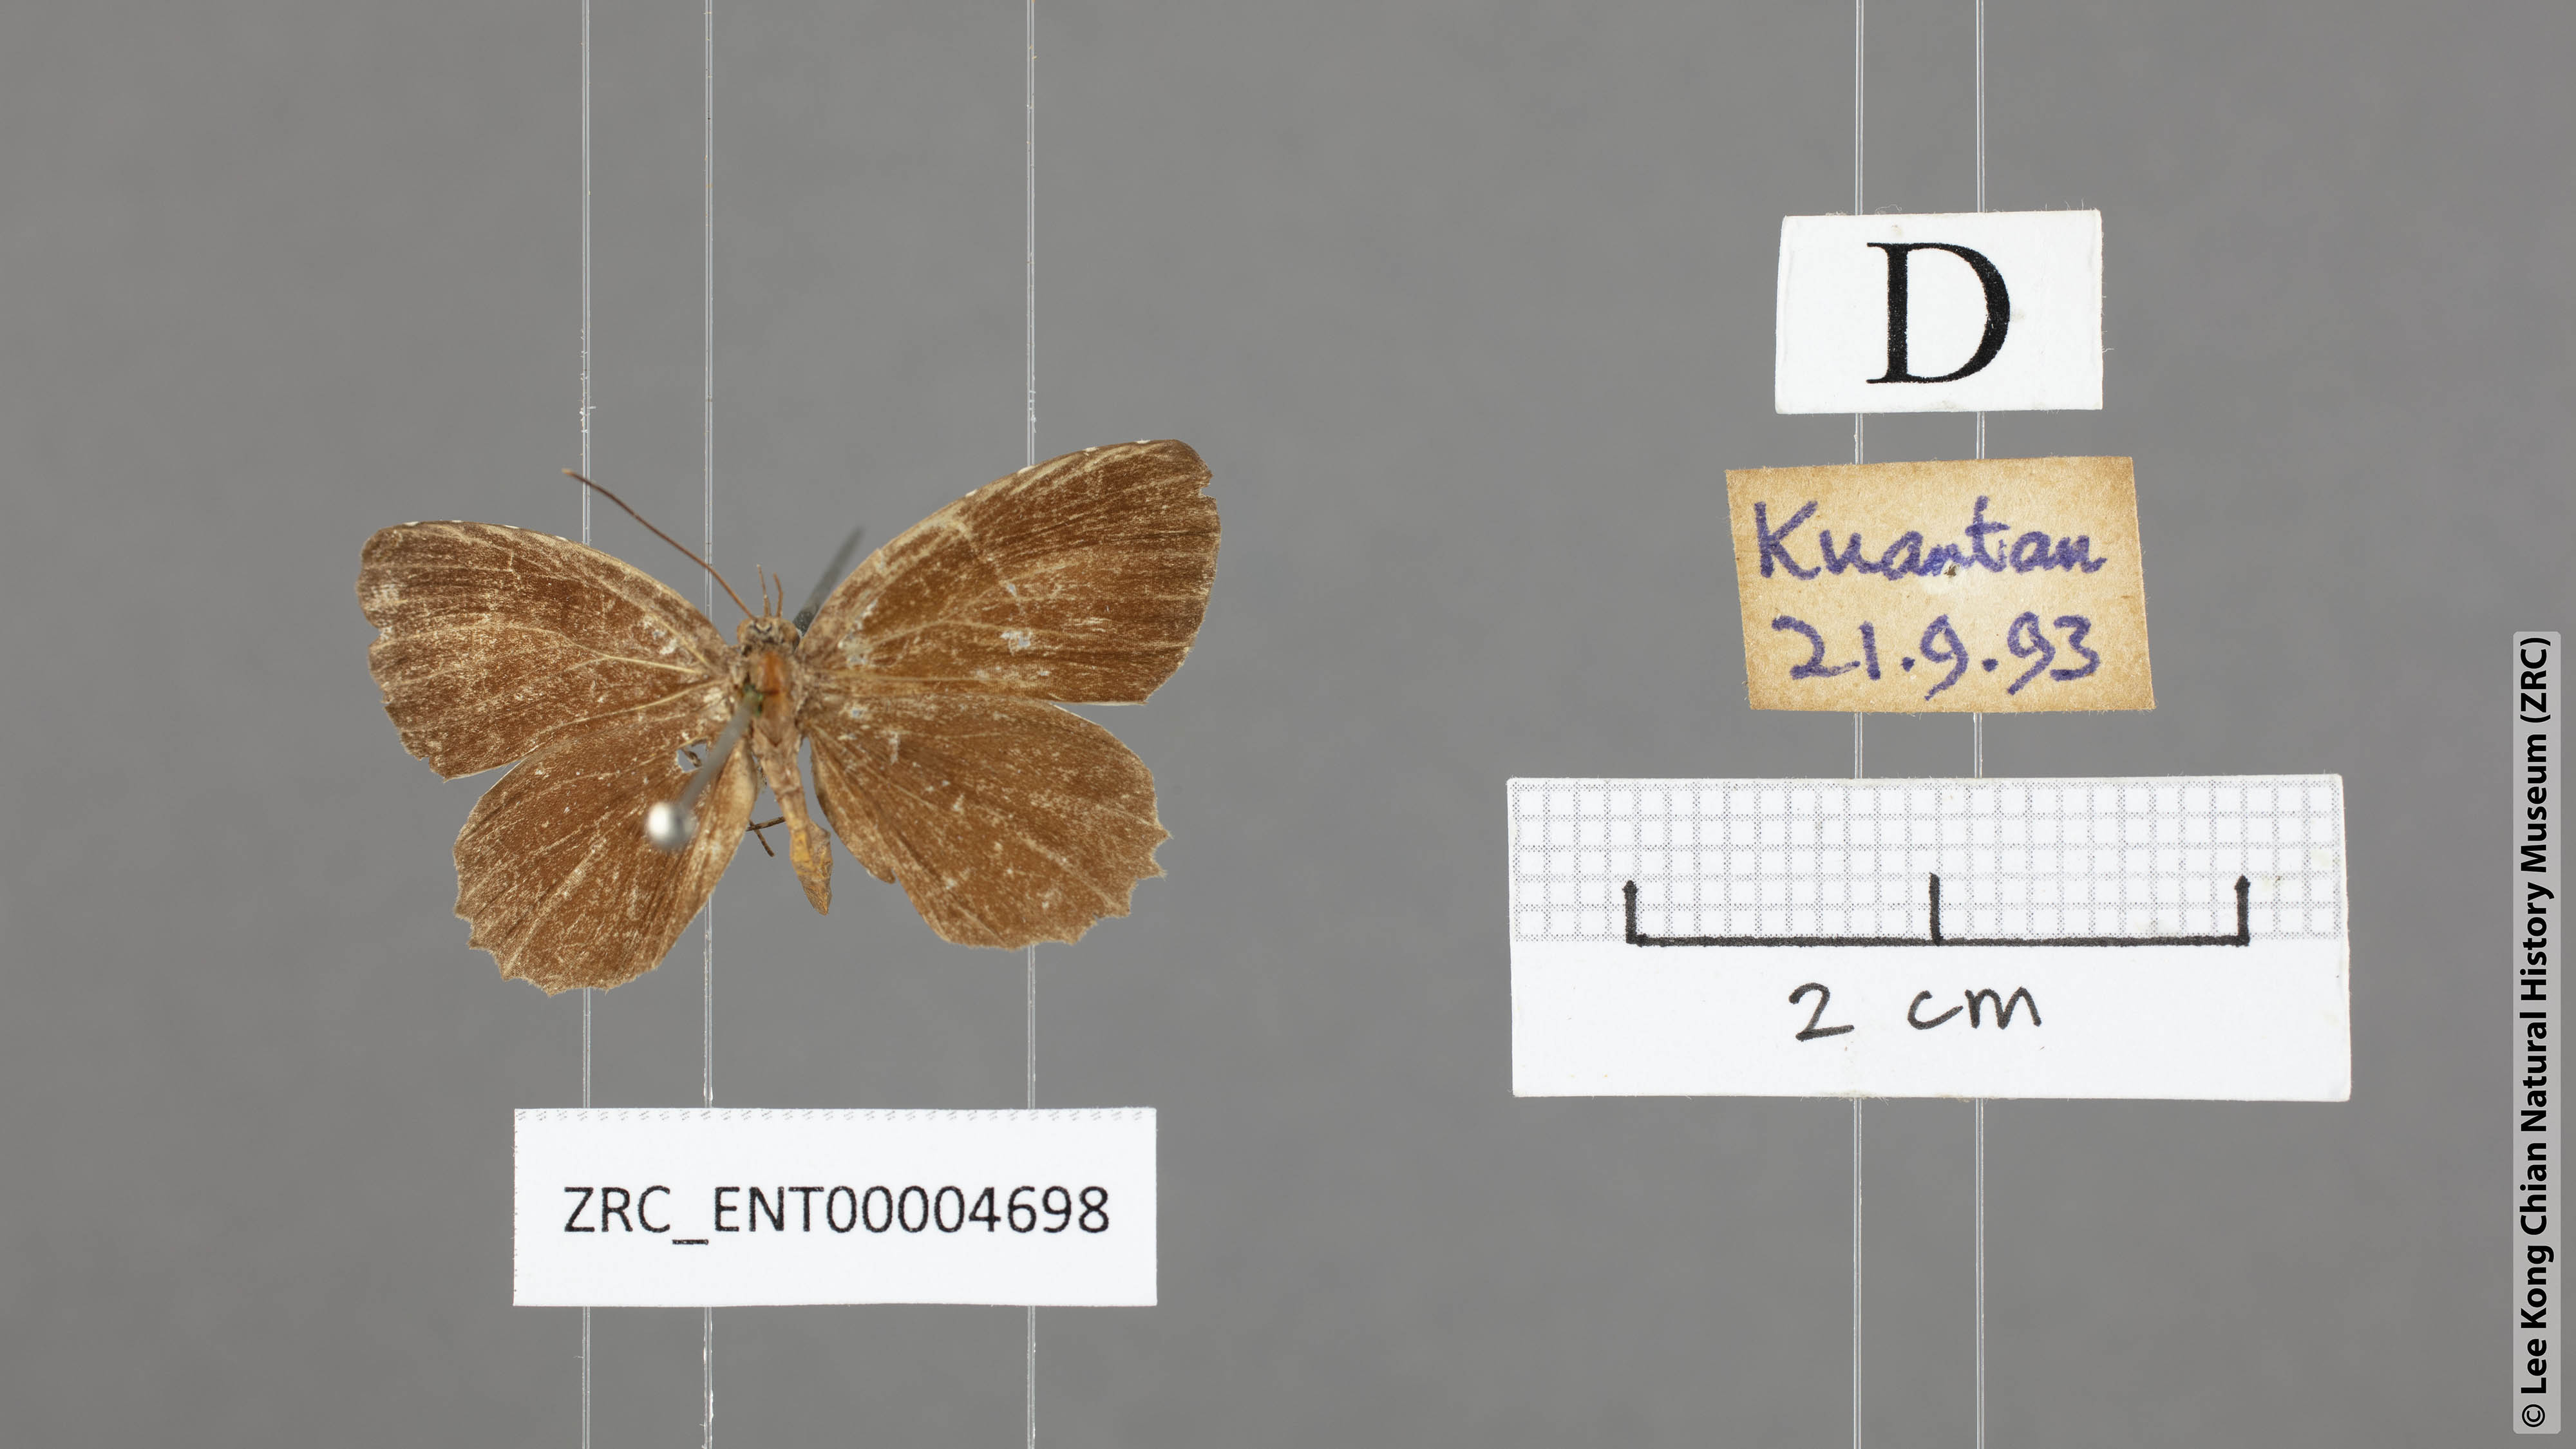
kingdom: Animalia
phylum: Arthropoda
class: Insecta
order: Lepidoptera
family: Lycaenidae
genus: Allotinus
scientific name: Allotinus portunus
